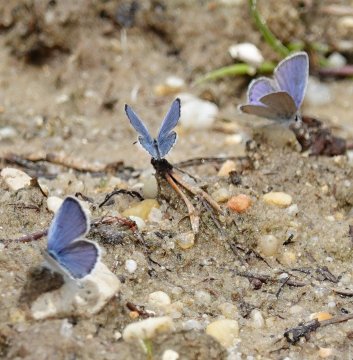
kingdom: Animalia
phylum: Arthropoda
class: Insecta
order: Lepidoptera
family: Lycaenidae
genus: Elkalyce
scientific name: Elkalyce comyntas
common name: Eastern Tailed-Blue
